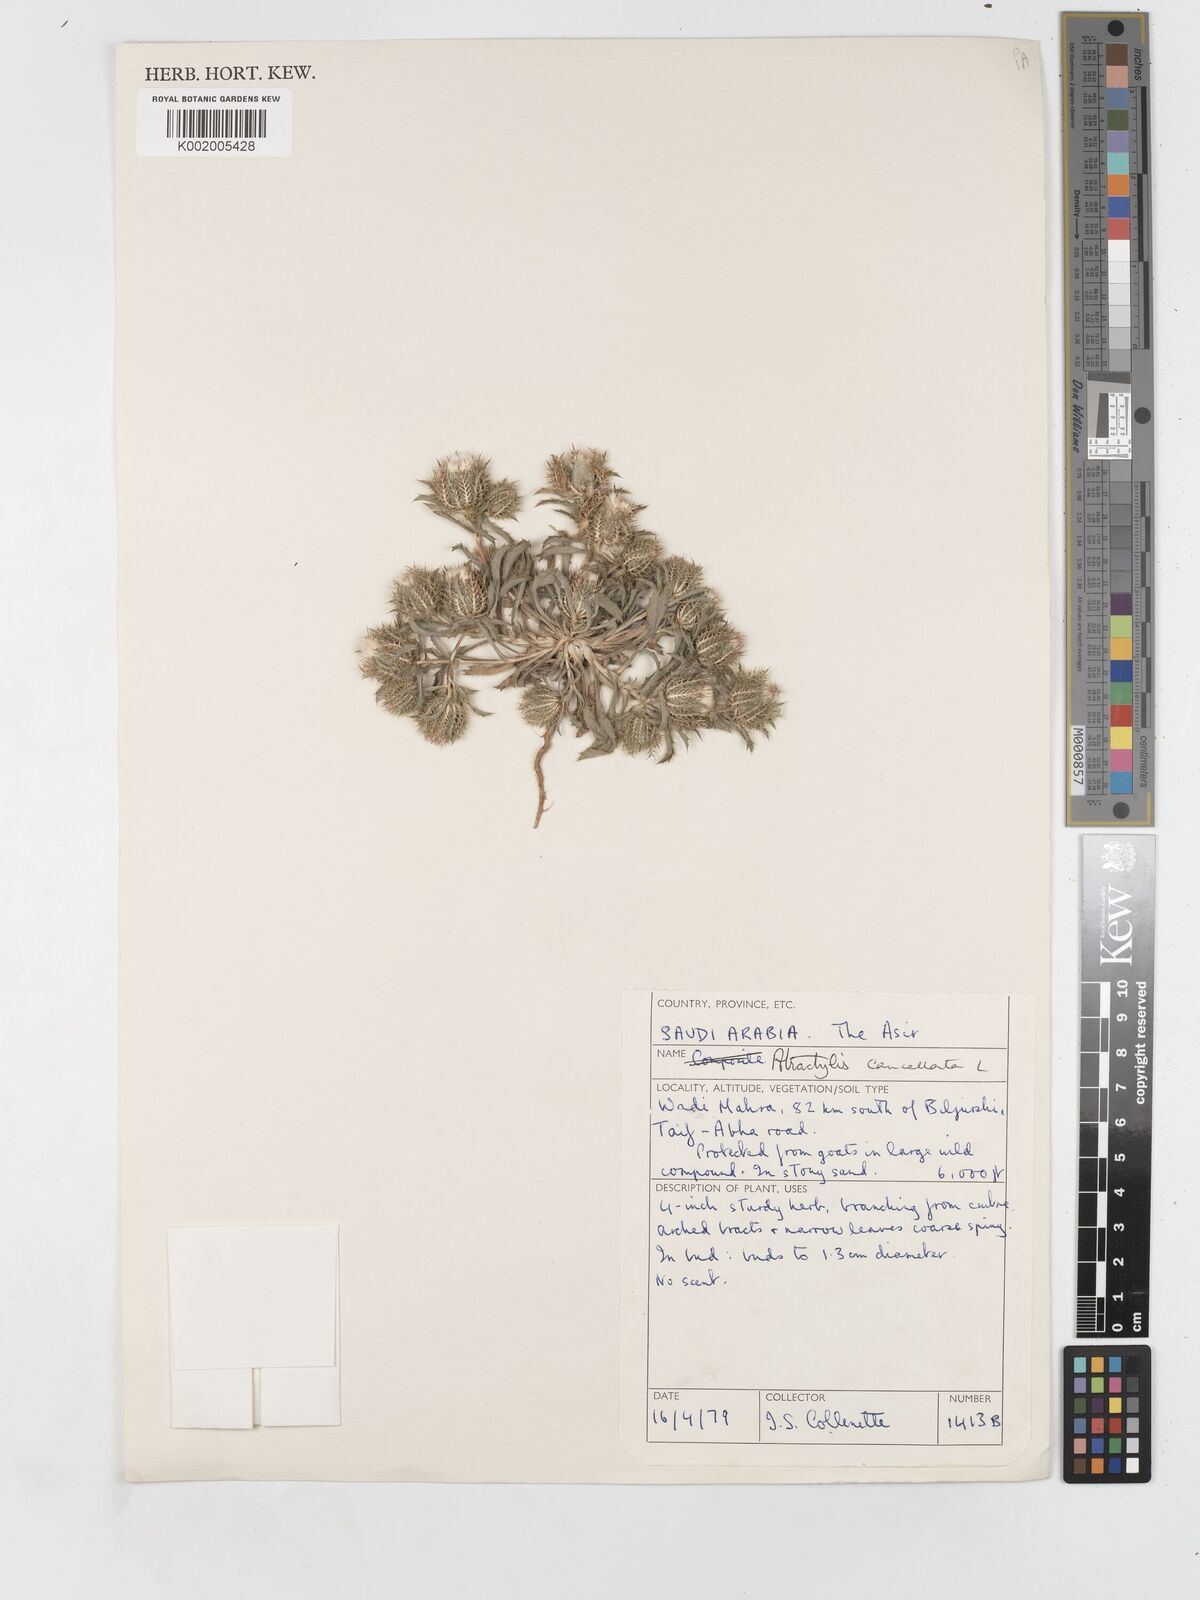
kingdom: Plantae
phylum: Tracheophyta
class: Magnoliopsida
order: Asterales
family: Asteraceae
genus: Atractylis
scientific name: Atractylis cancellata
